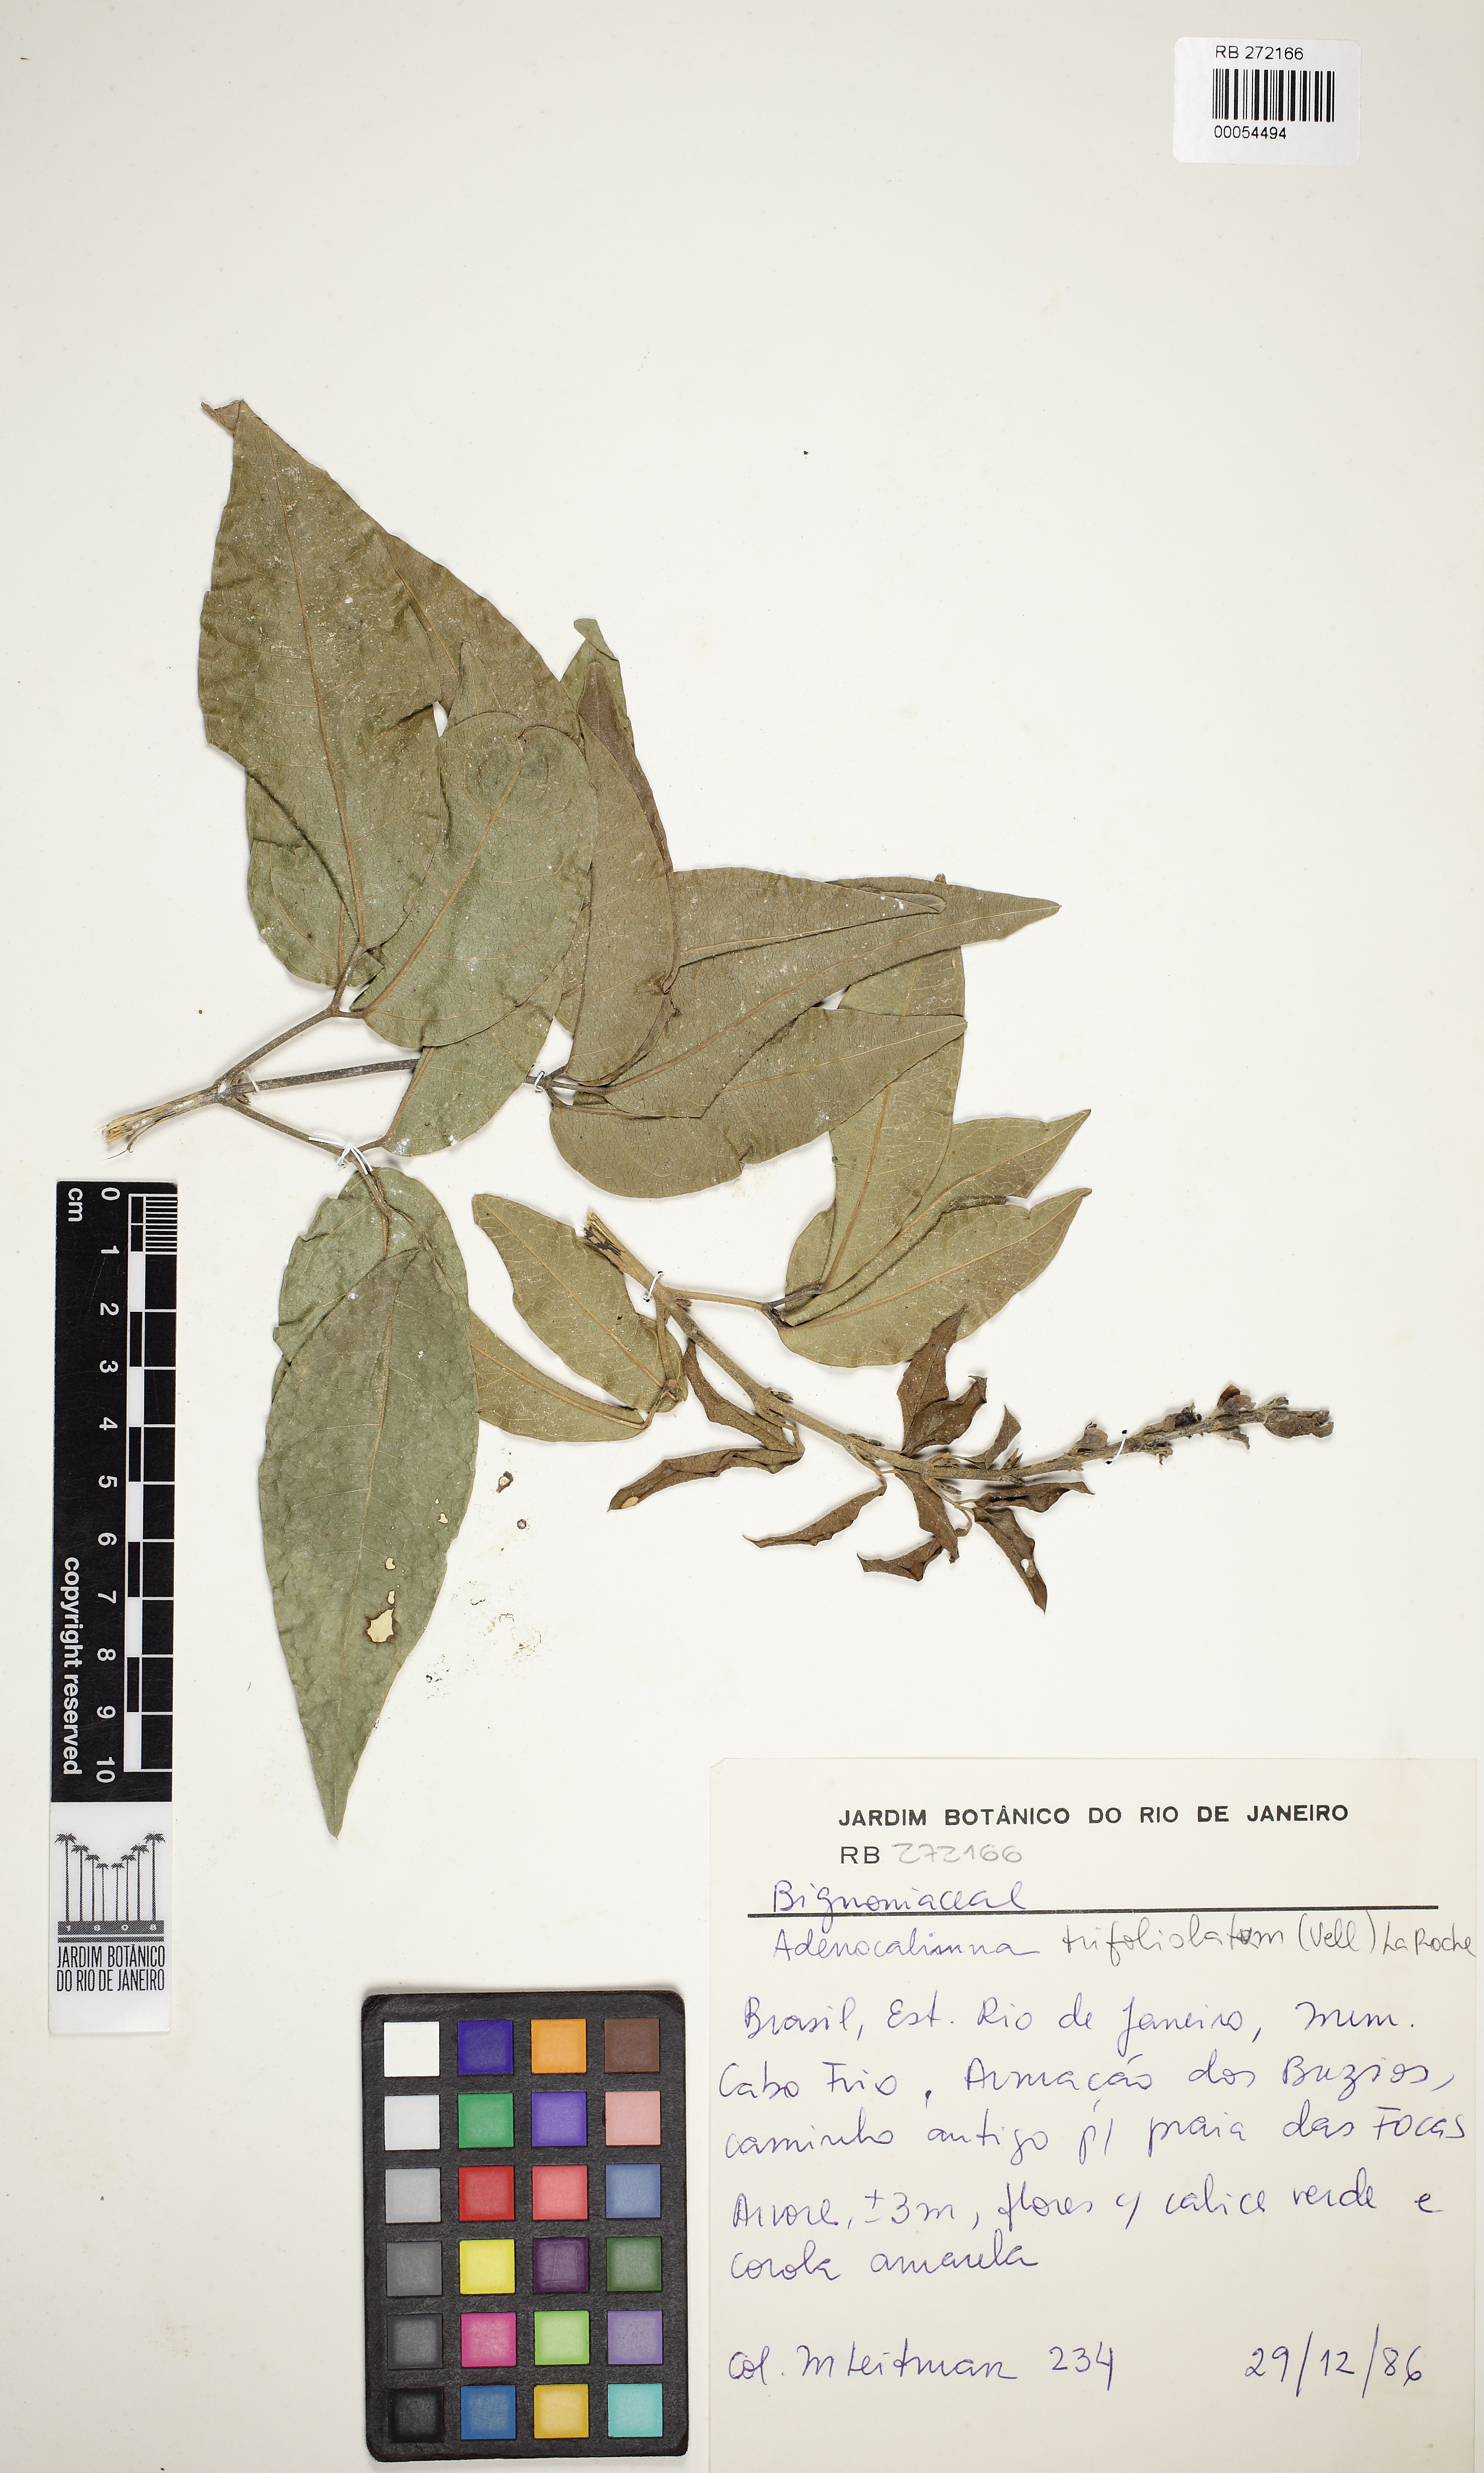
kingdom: Plantae
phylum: Tracheophyta
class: Magnoliopsida
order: Lamiales
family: Bignoniaceae
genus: Adenocalymma
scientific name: Adenocalymma trifoliatum
